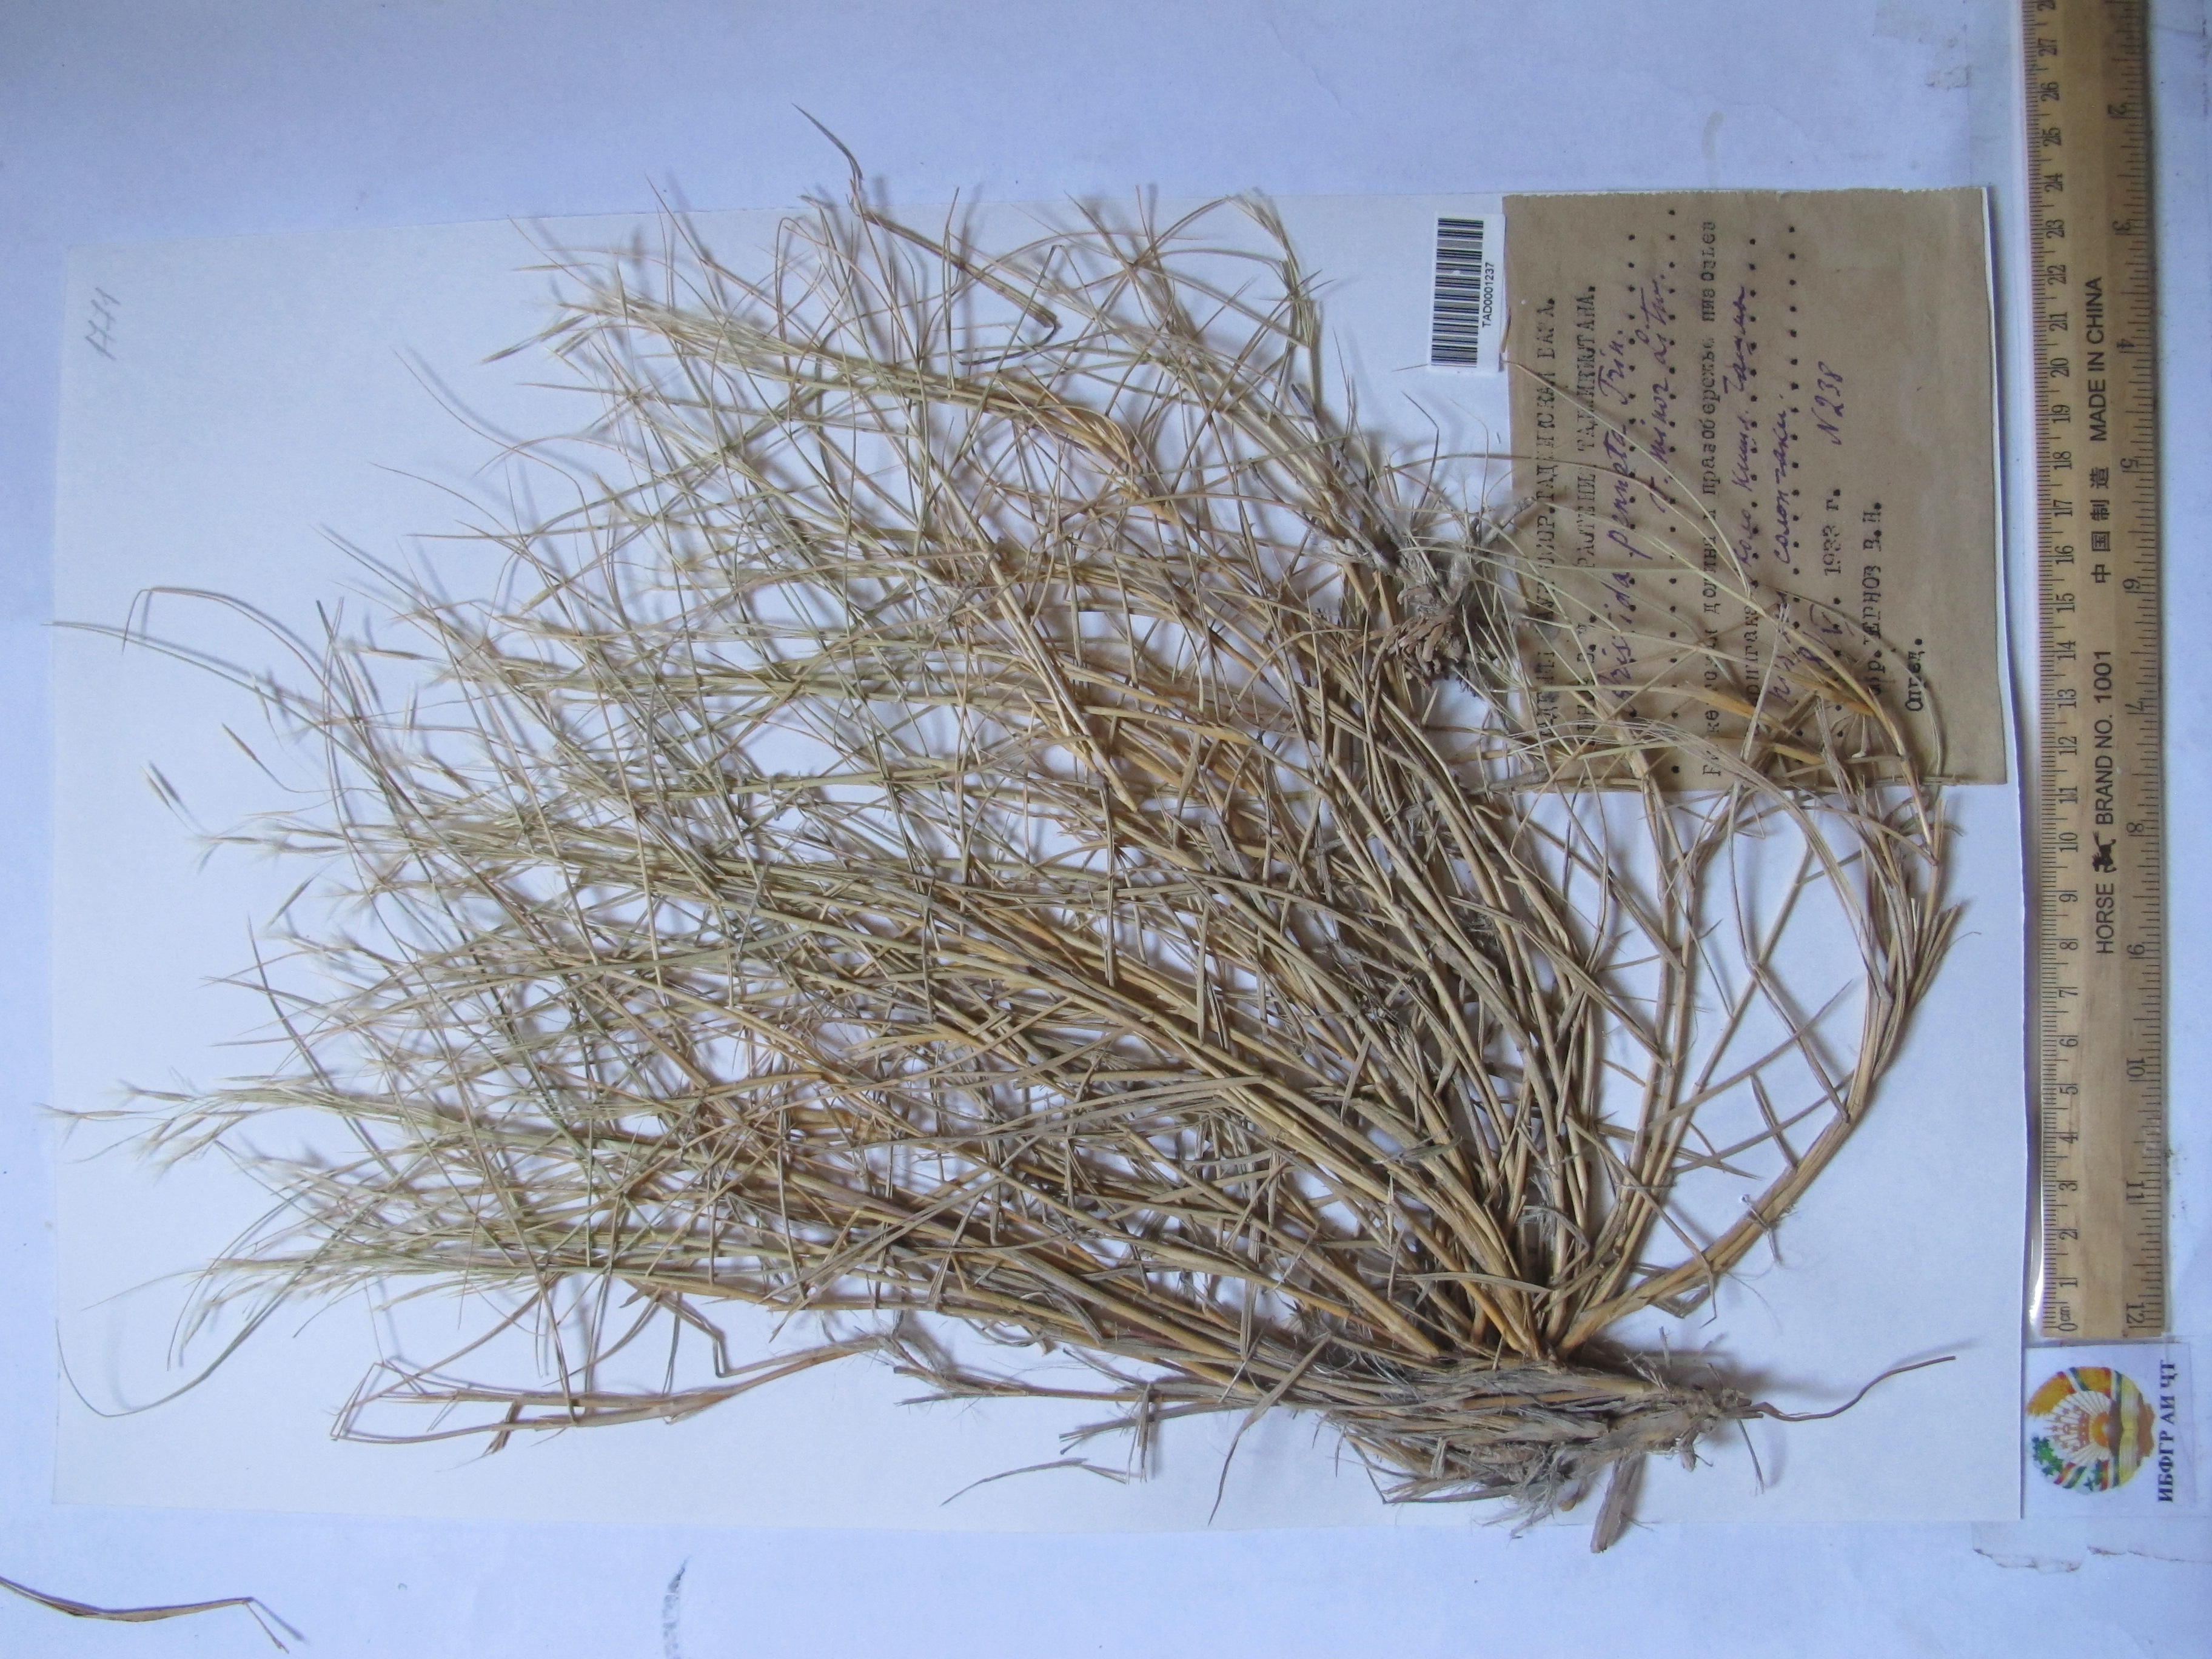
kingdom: Plantae
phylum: Tracheophyta
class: Liliopsida
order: Poales
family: Poaceae
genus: Stipagrostis
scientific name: Stipagrostis pennata
